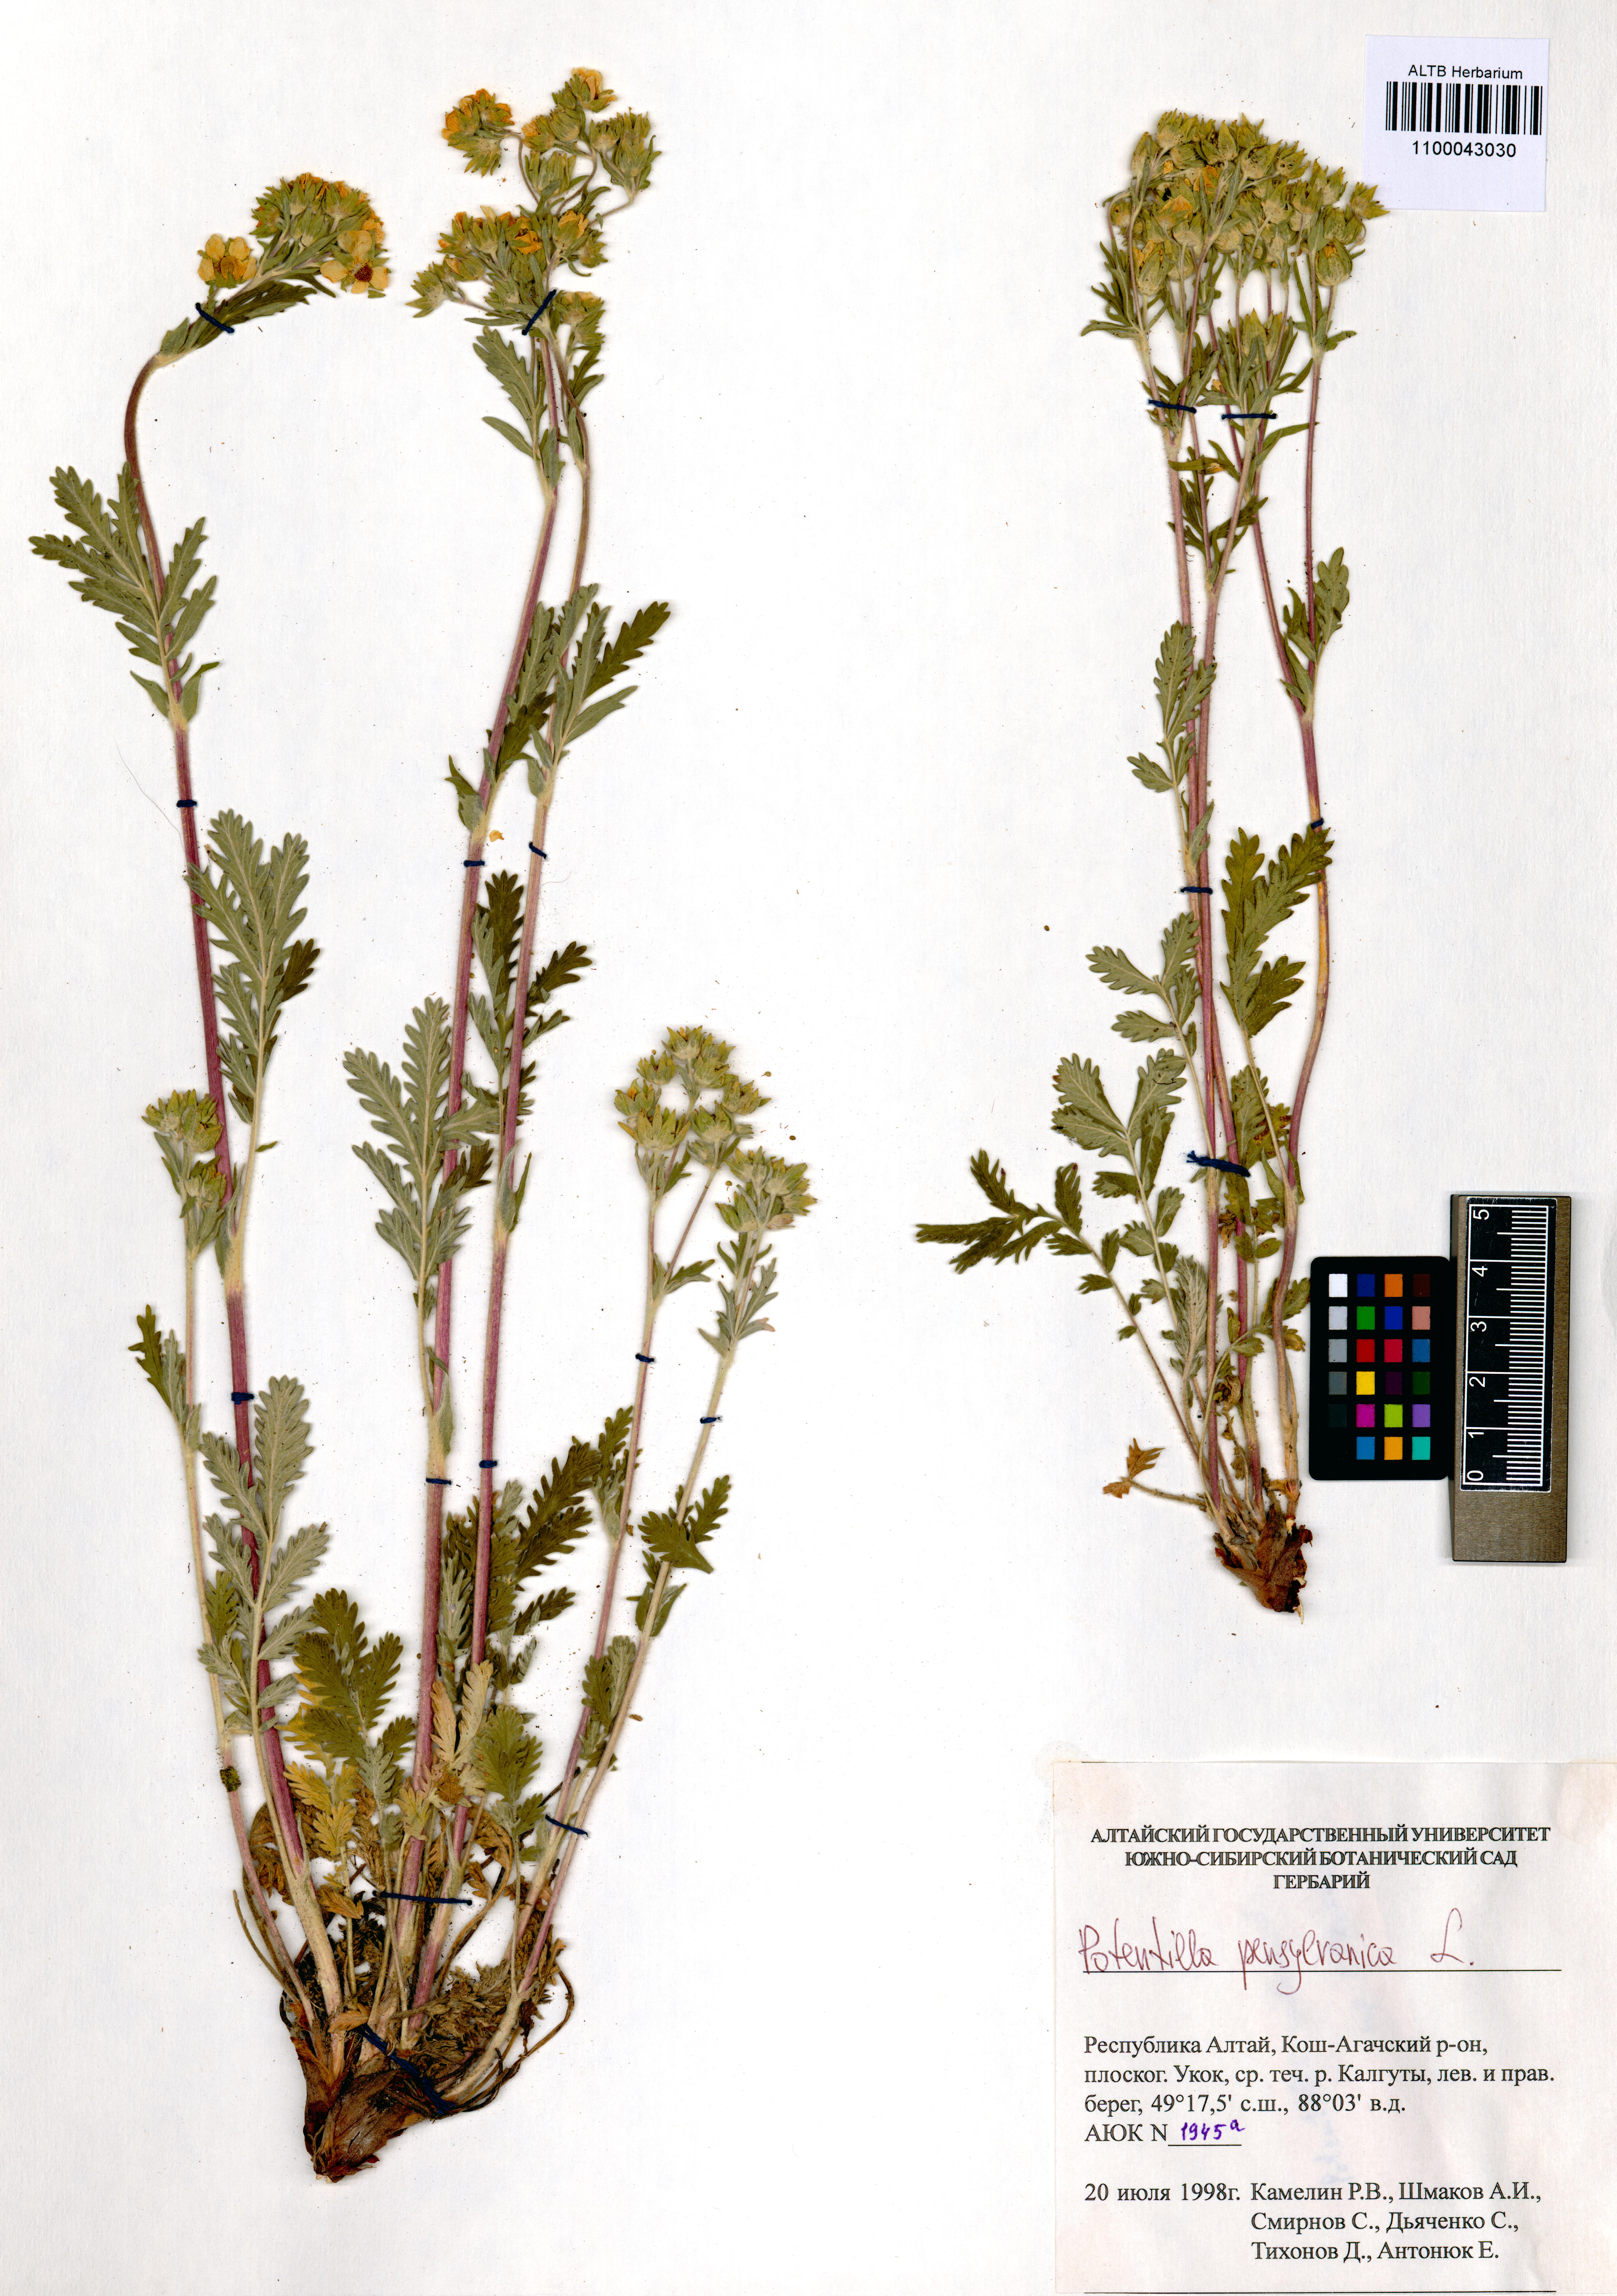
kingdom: Plantae
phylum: Tracheophyta
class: Magnoliopsida
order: Rosales
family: Rosaceae
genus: Potentilla
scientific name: Potentilla pensylvanica
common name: Pennsylvania cinquefoil
